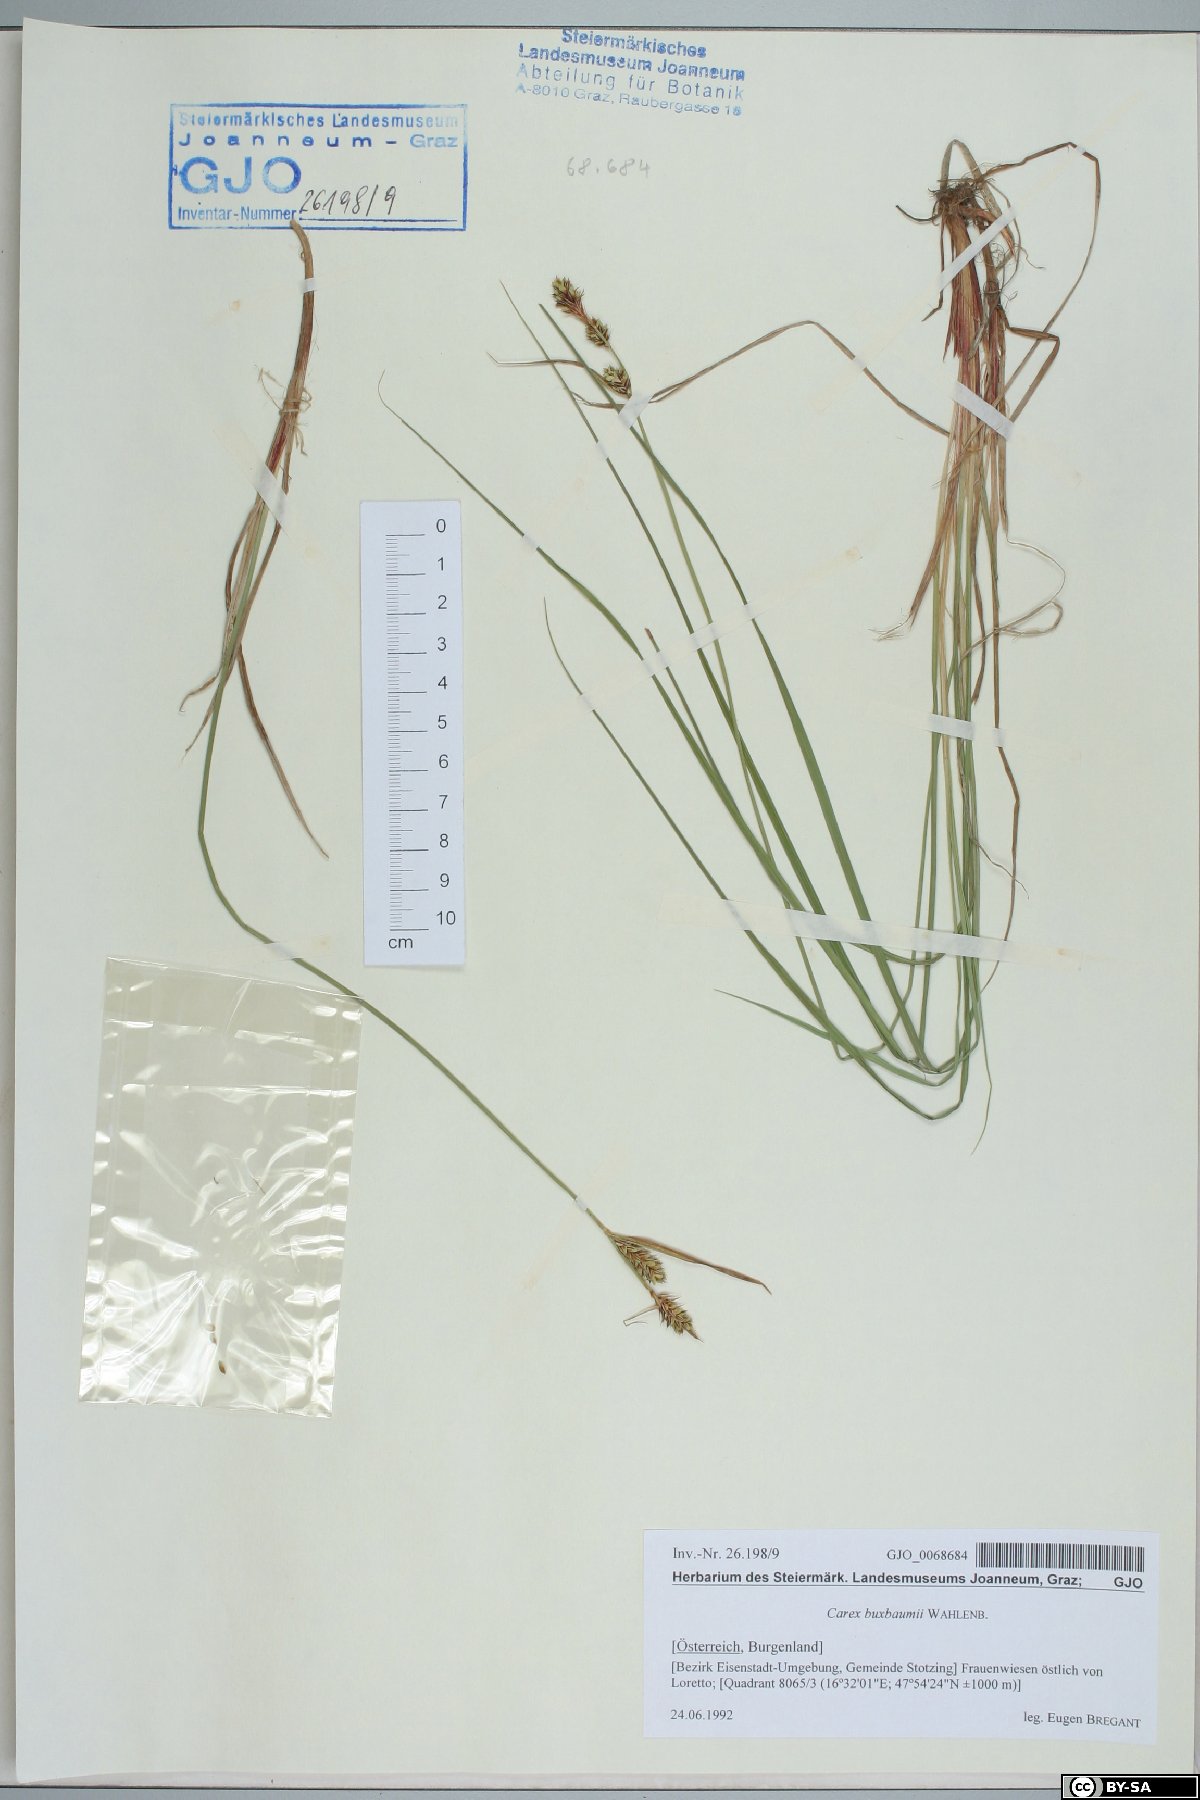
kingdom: Plantae
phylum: Tracheophyta
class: Liliopsida
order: Poales
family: Cyperaceae
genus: Carex
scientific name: Carex buxbaumii
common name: Club sedge
